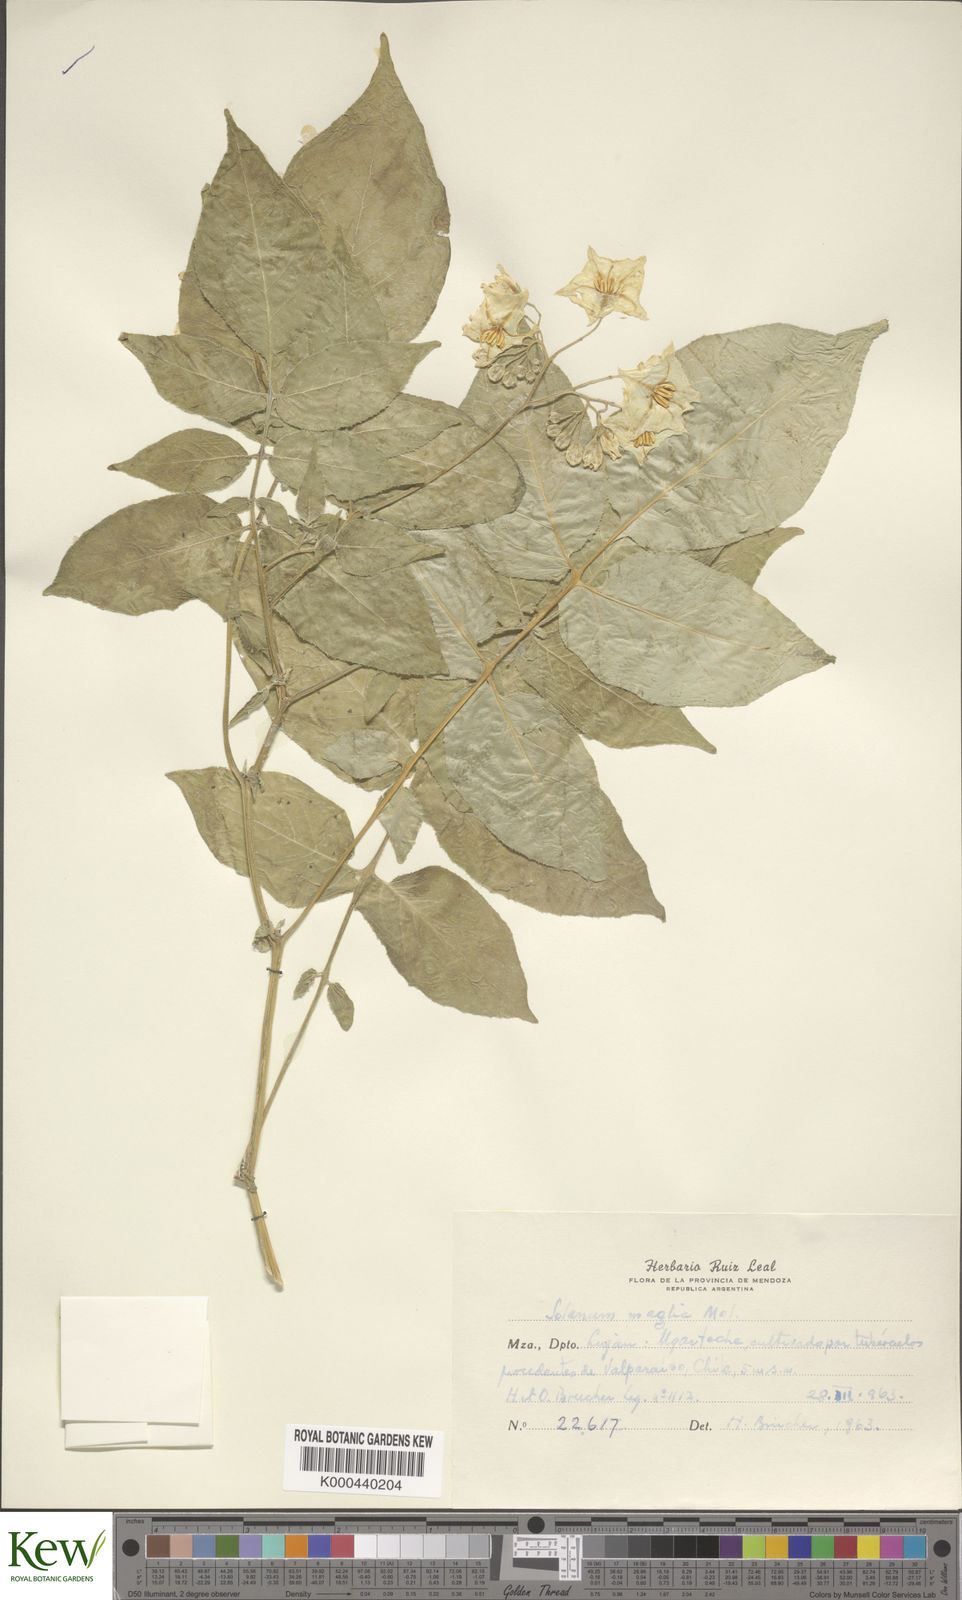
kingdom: Plantae
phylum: Tracheophyta
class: Magnoliopsida
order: Solanales
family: Solanaceae
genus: Solanum
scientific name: Solanum maglia
